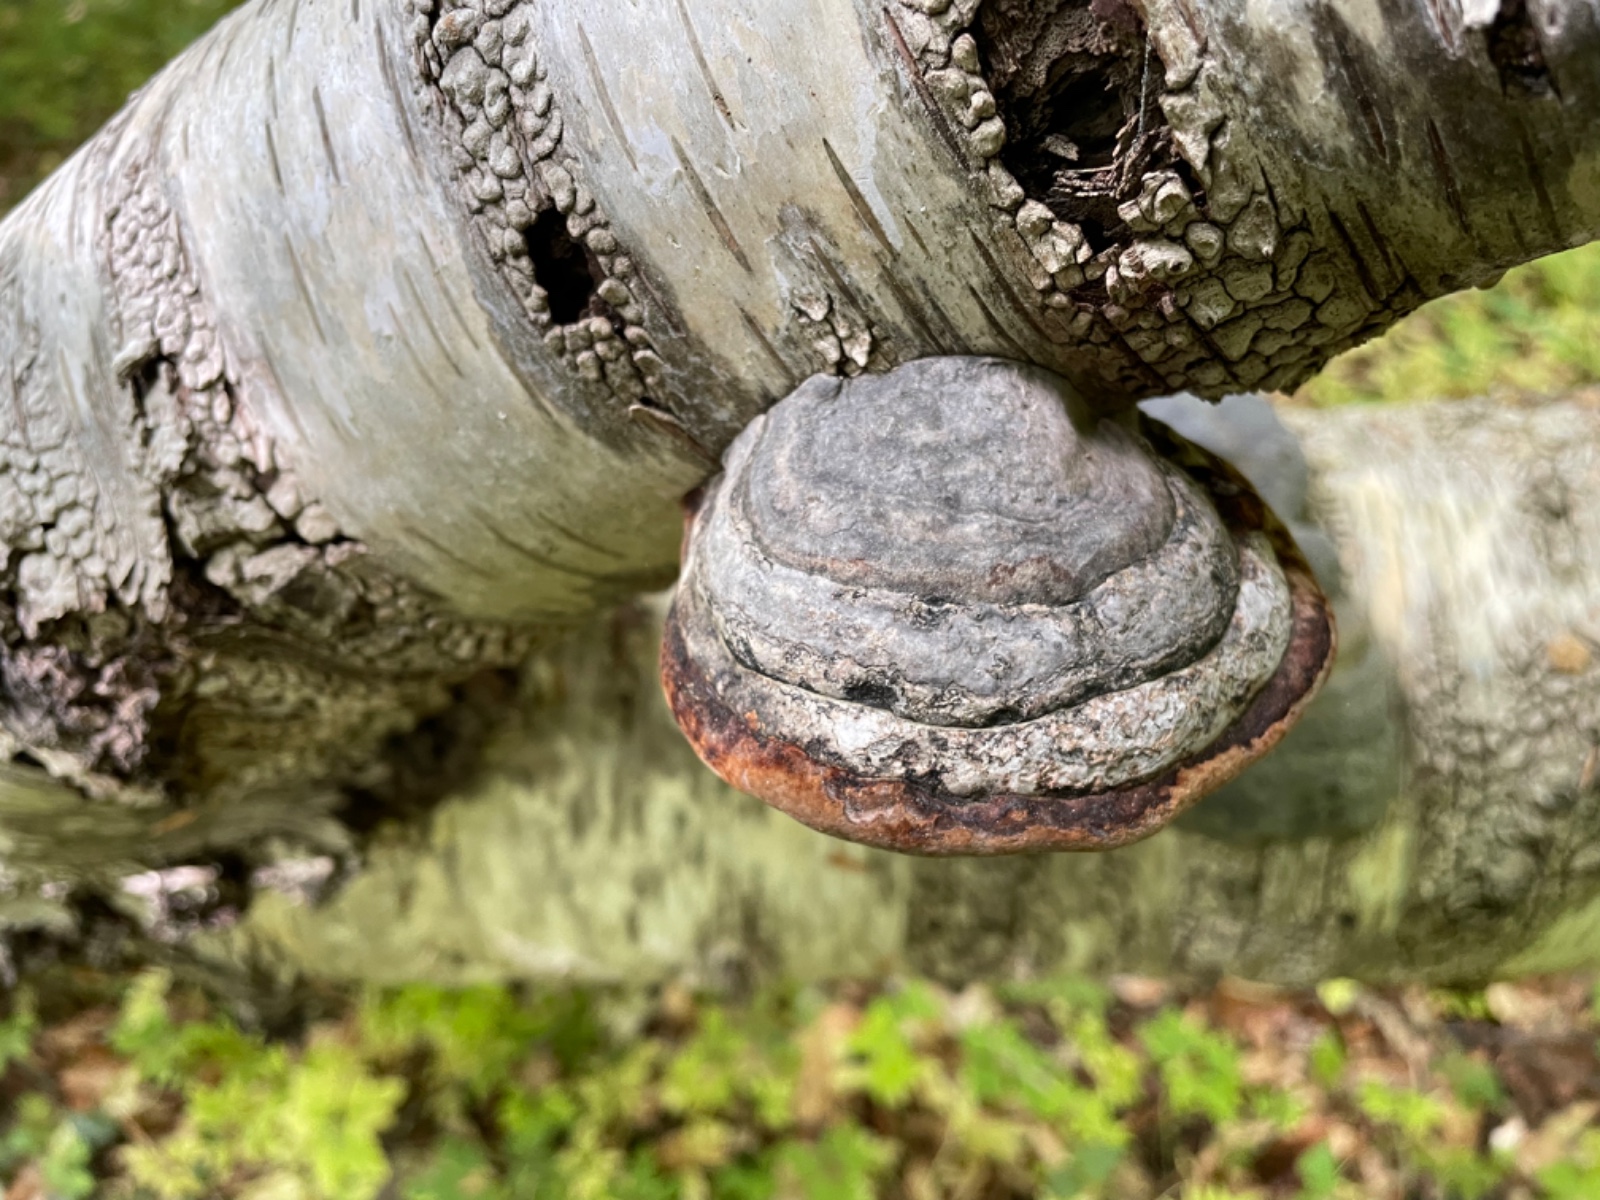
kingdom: Fungi
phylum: Basidiomycota
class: Agaricomycetes
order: Polyporales
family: Fomitopsidaceae
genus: Fomitopsis
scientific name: Fomitopsis pinicola
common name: randbæltet hovporesvamp
